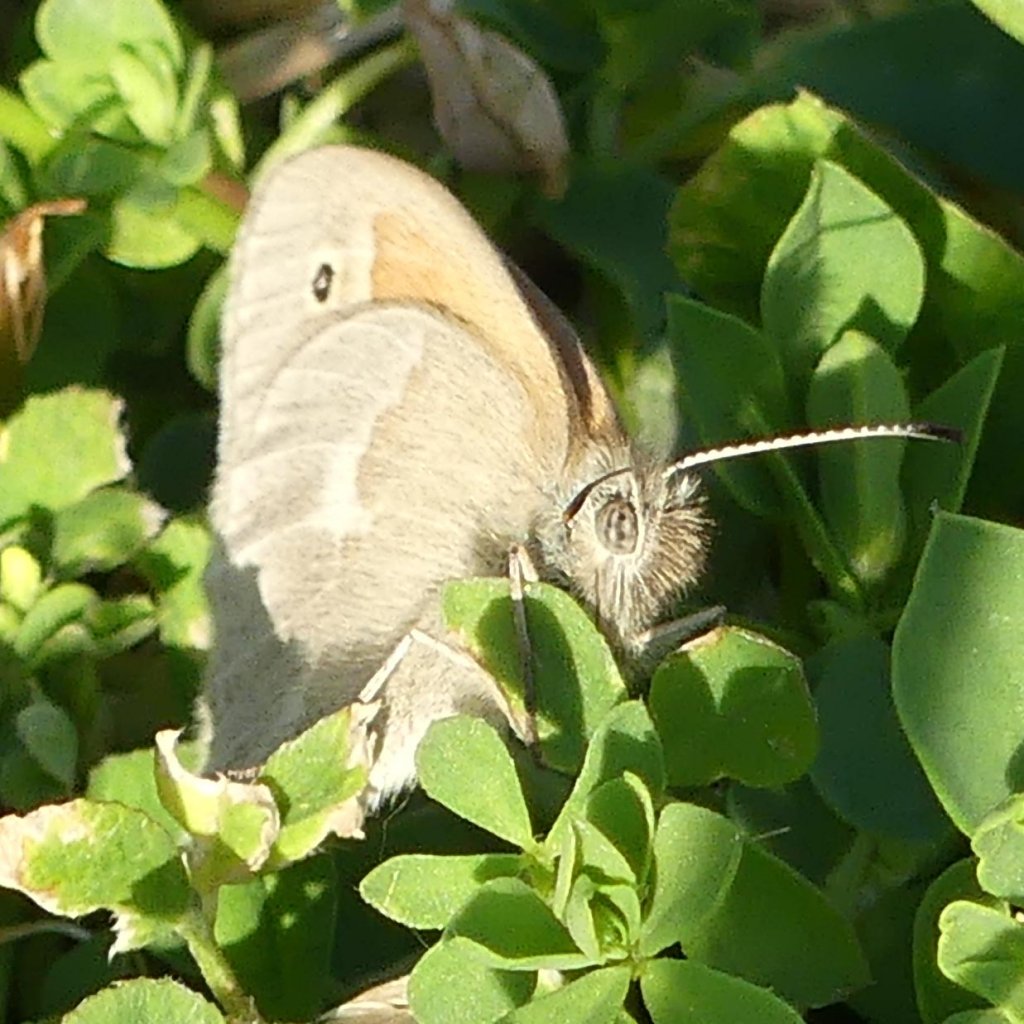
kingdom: Animalia
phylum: Arthropoda
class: Insecta
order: Lepidoptera
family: Nymphalidae
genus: Coenonympha
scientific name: Coenonympha tullia
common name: Large Heath
